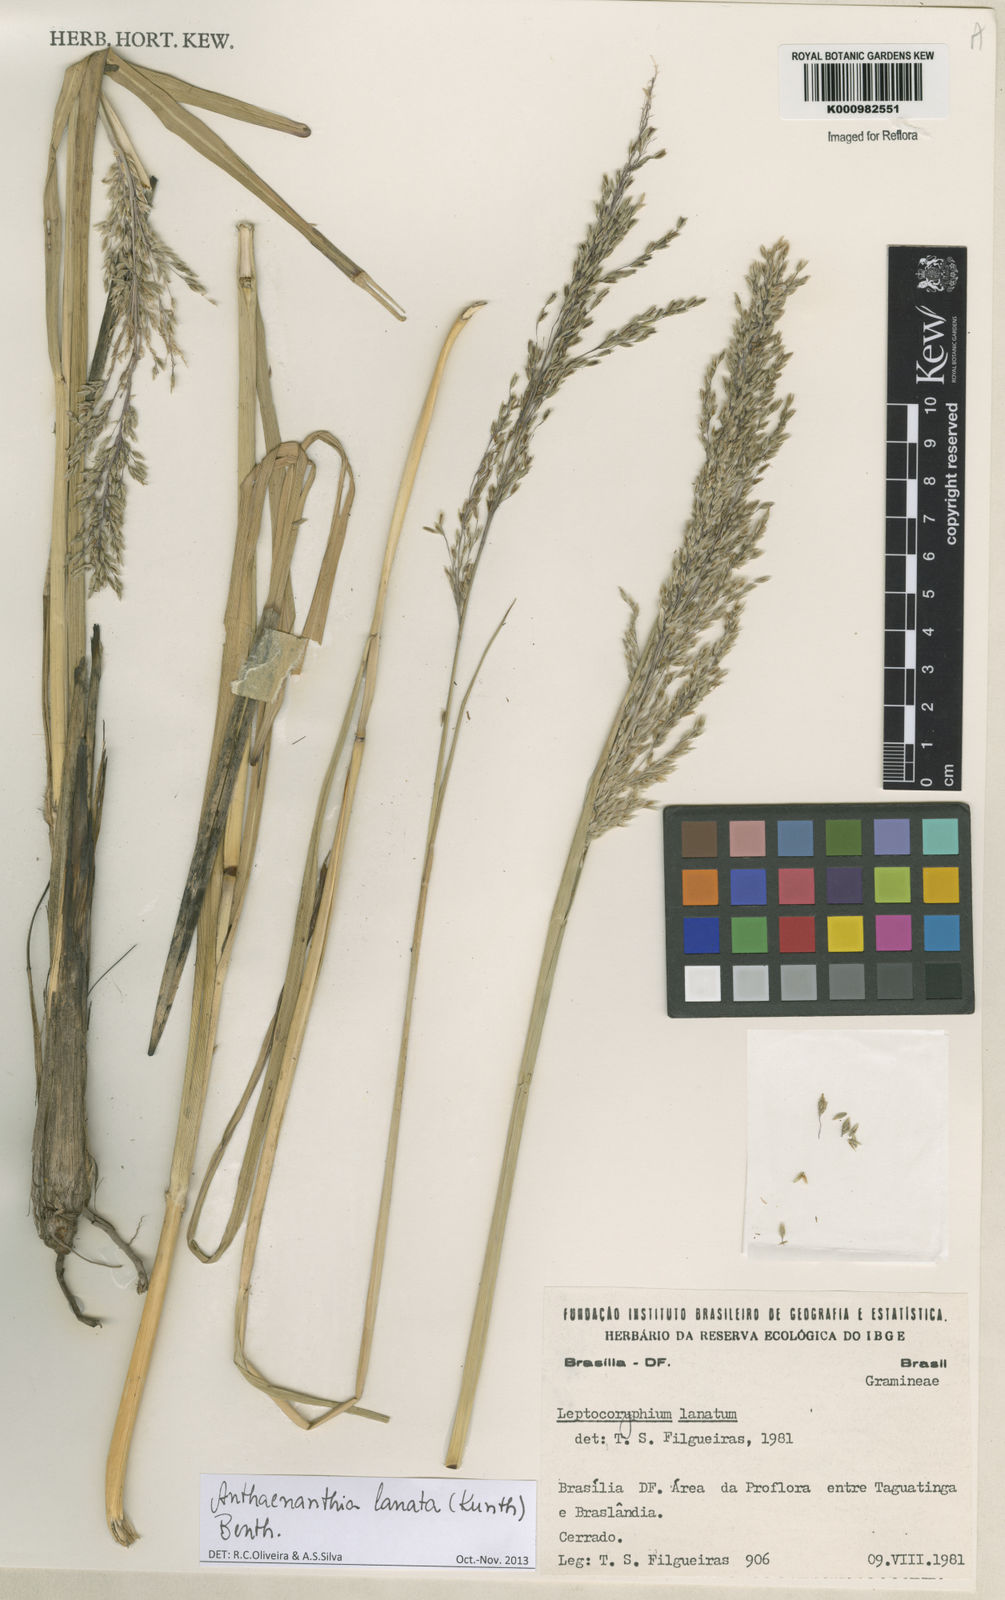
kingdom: Plantae
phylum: Tracheophyta
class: Liliopsida
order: Poales
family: Poaceae
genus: Anthenantia
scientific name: Anthenantia lanata
